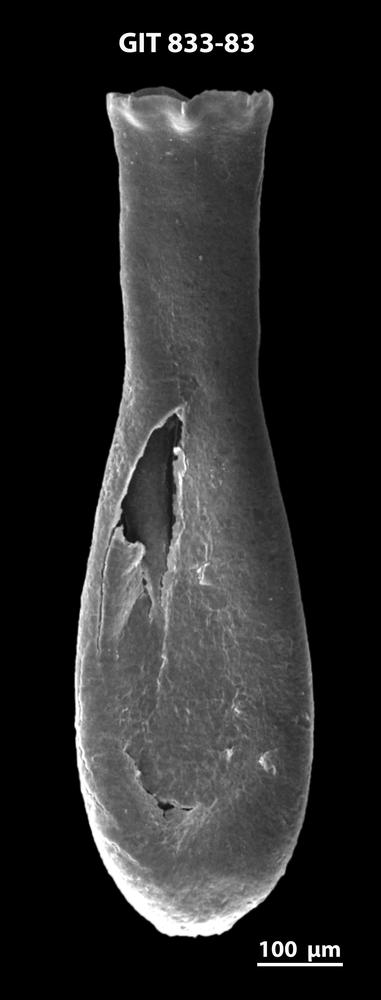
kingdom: Animalia
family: Lagenochitinidae
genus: Lagenochitina
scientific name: Lagenochitina megaesthonica
